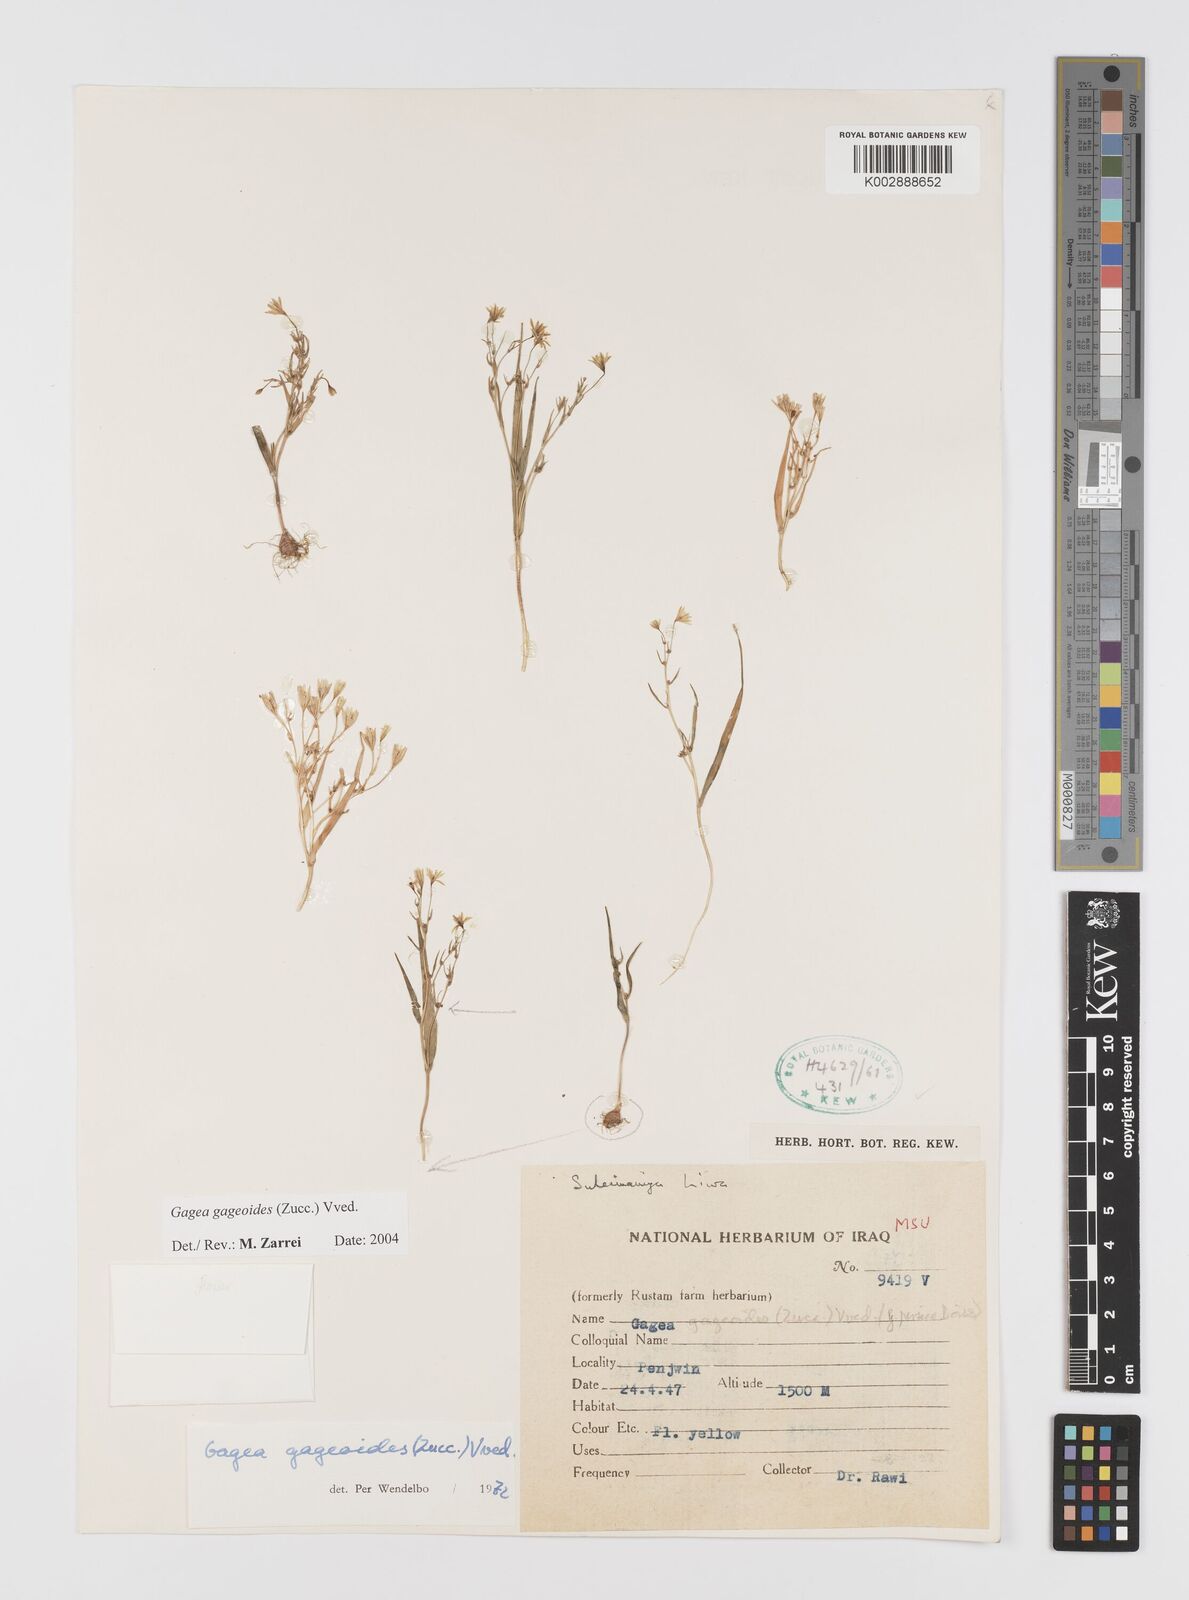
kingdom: Plantae
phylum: Tracheophyta
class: Liliopsida
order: Liliales
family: Liliaceae
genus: Gagea
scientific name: Gagea gageoides
